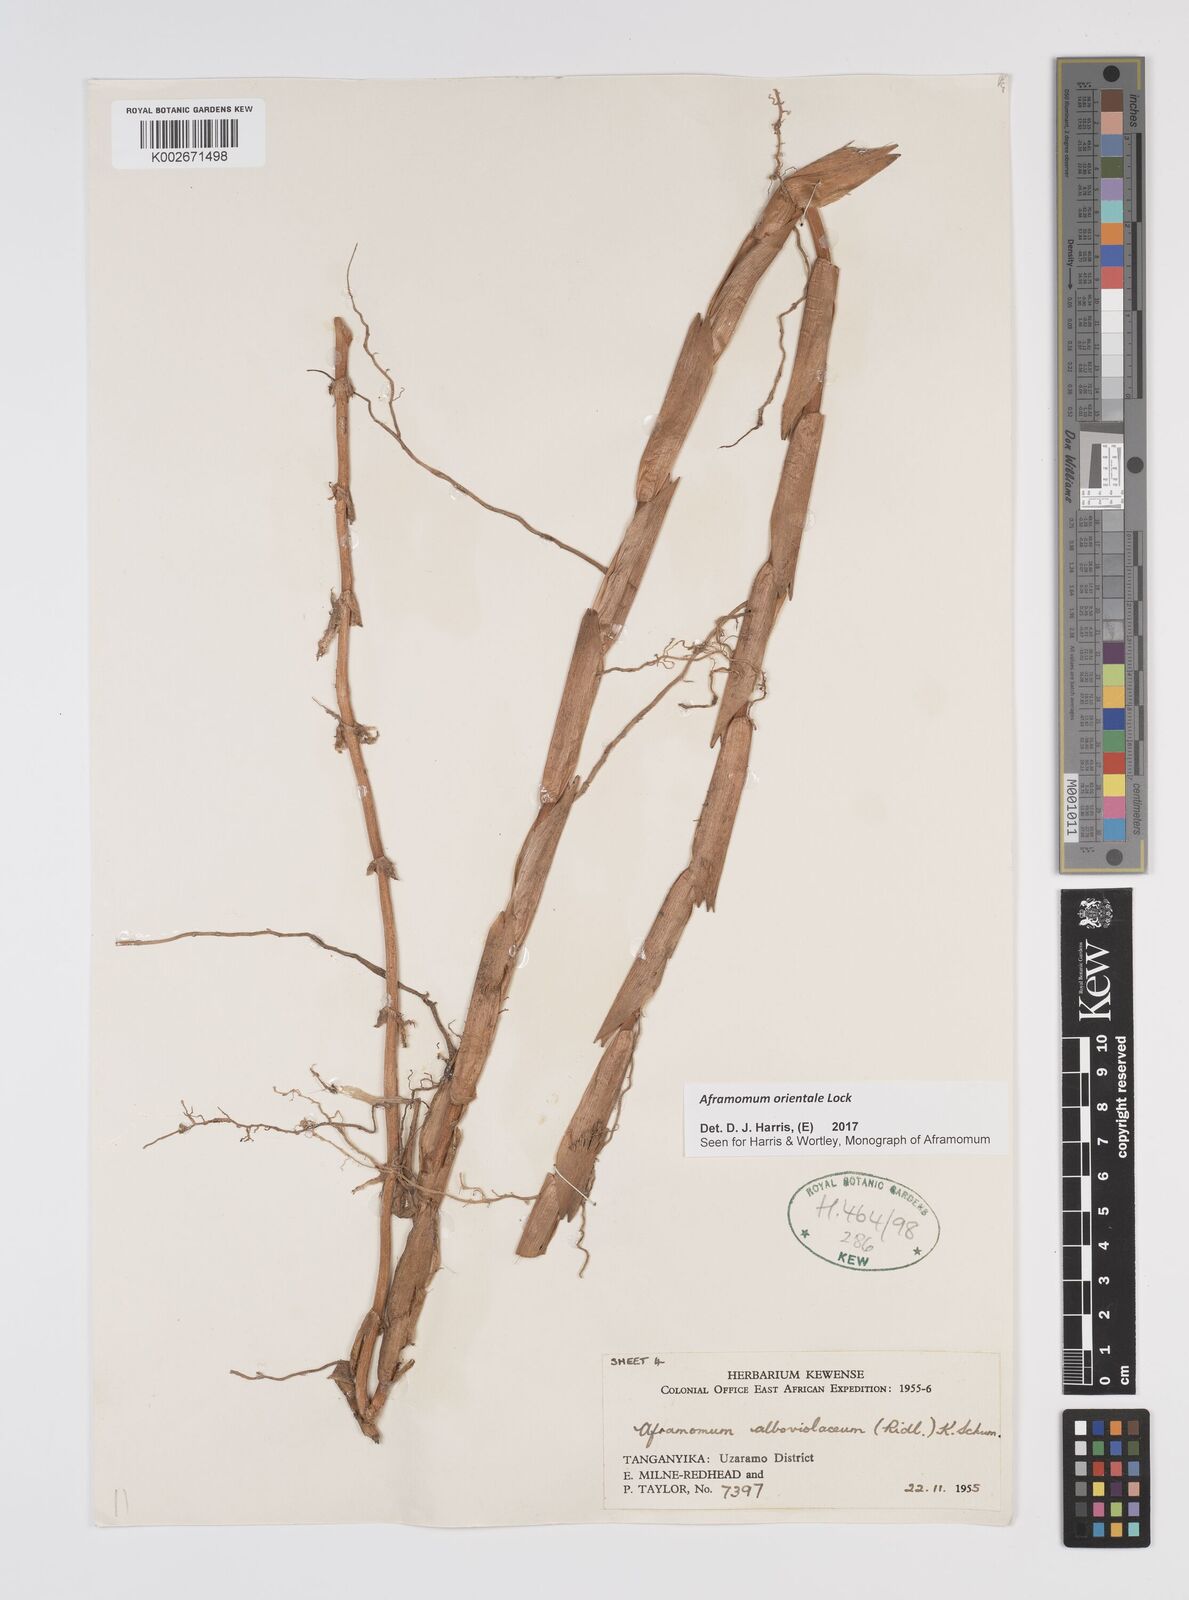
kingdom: Plantae
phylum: Tracheophyta
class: Liliopsida
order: Zingiberales
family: Zingiberaceae
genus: Aframomum
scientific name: Aframomum orientale
